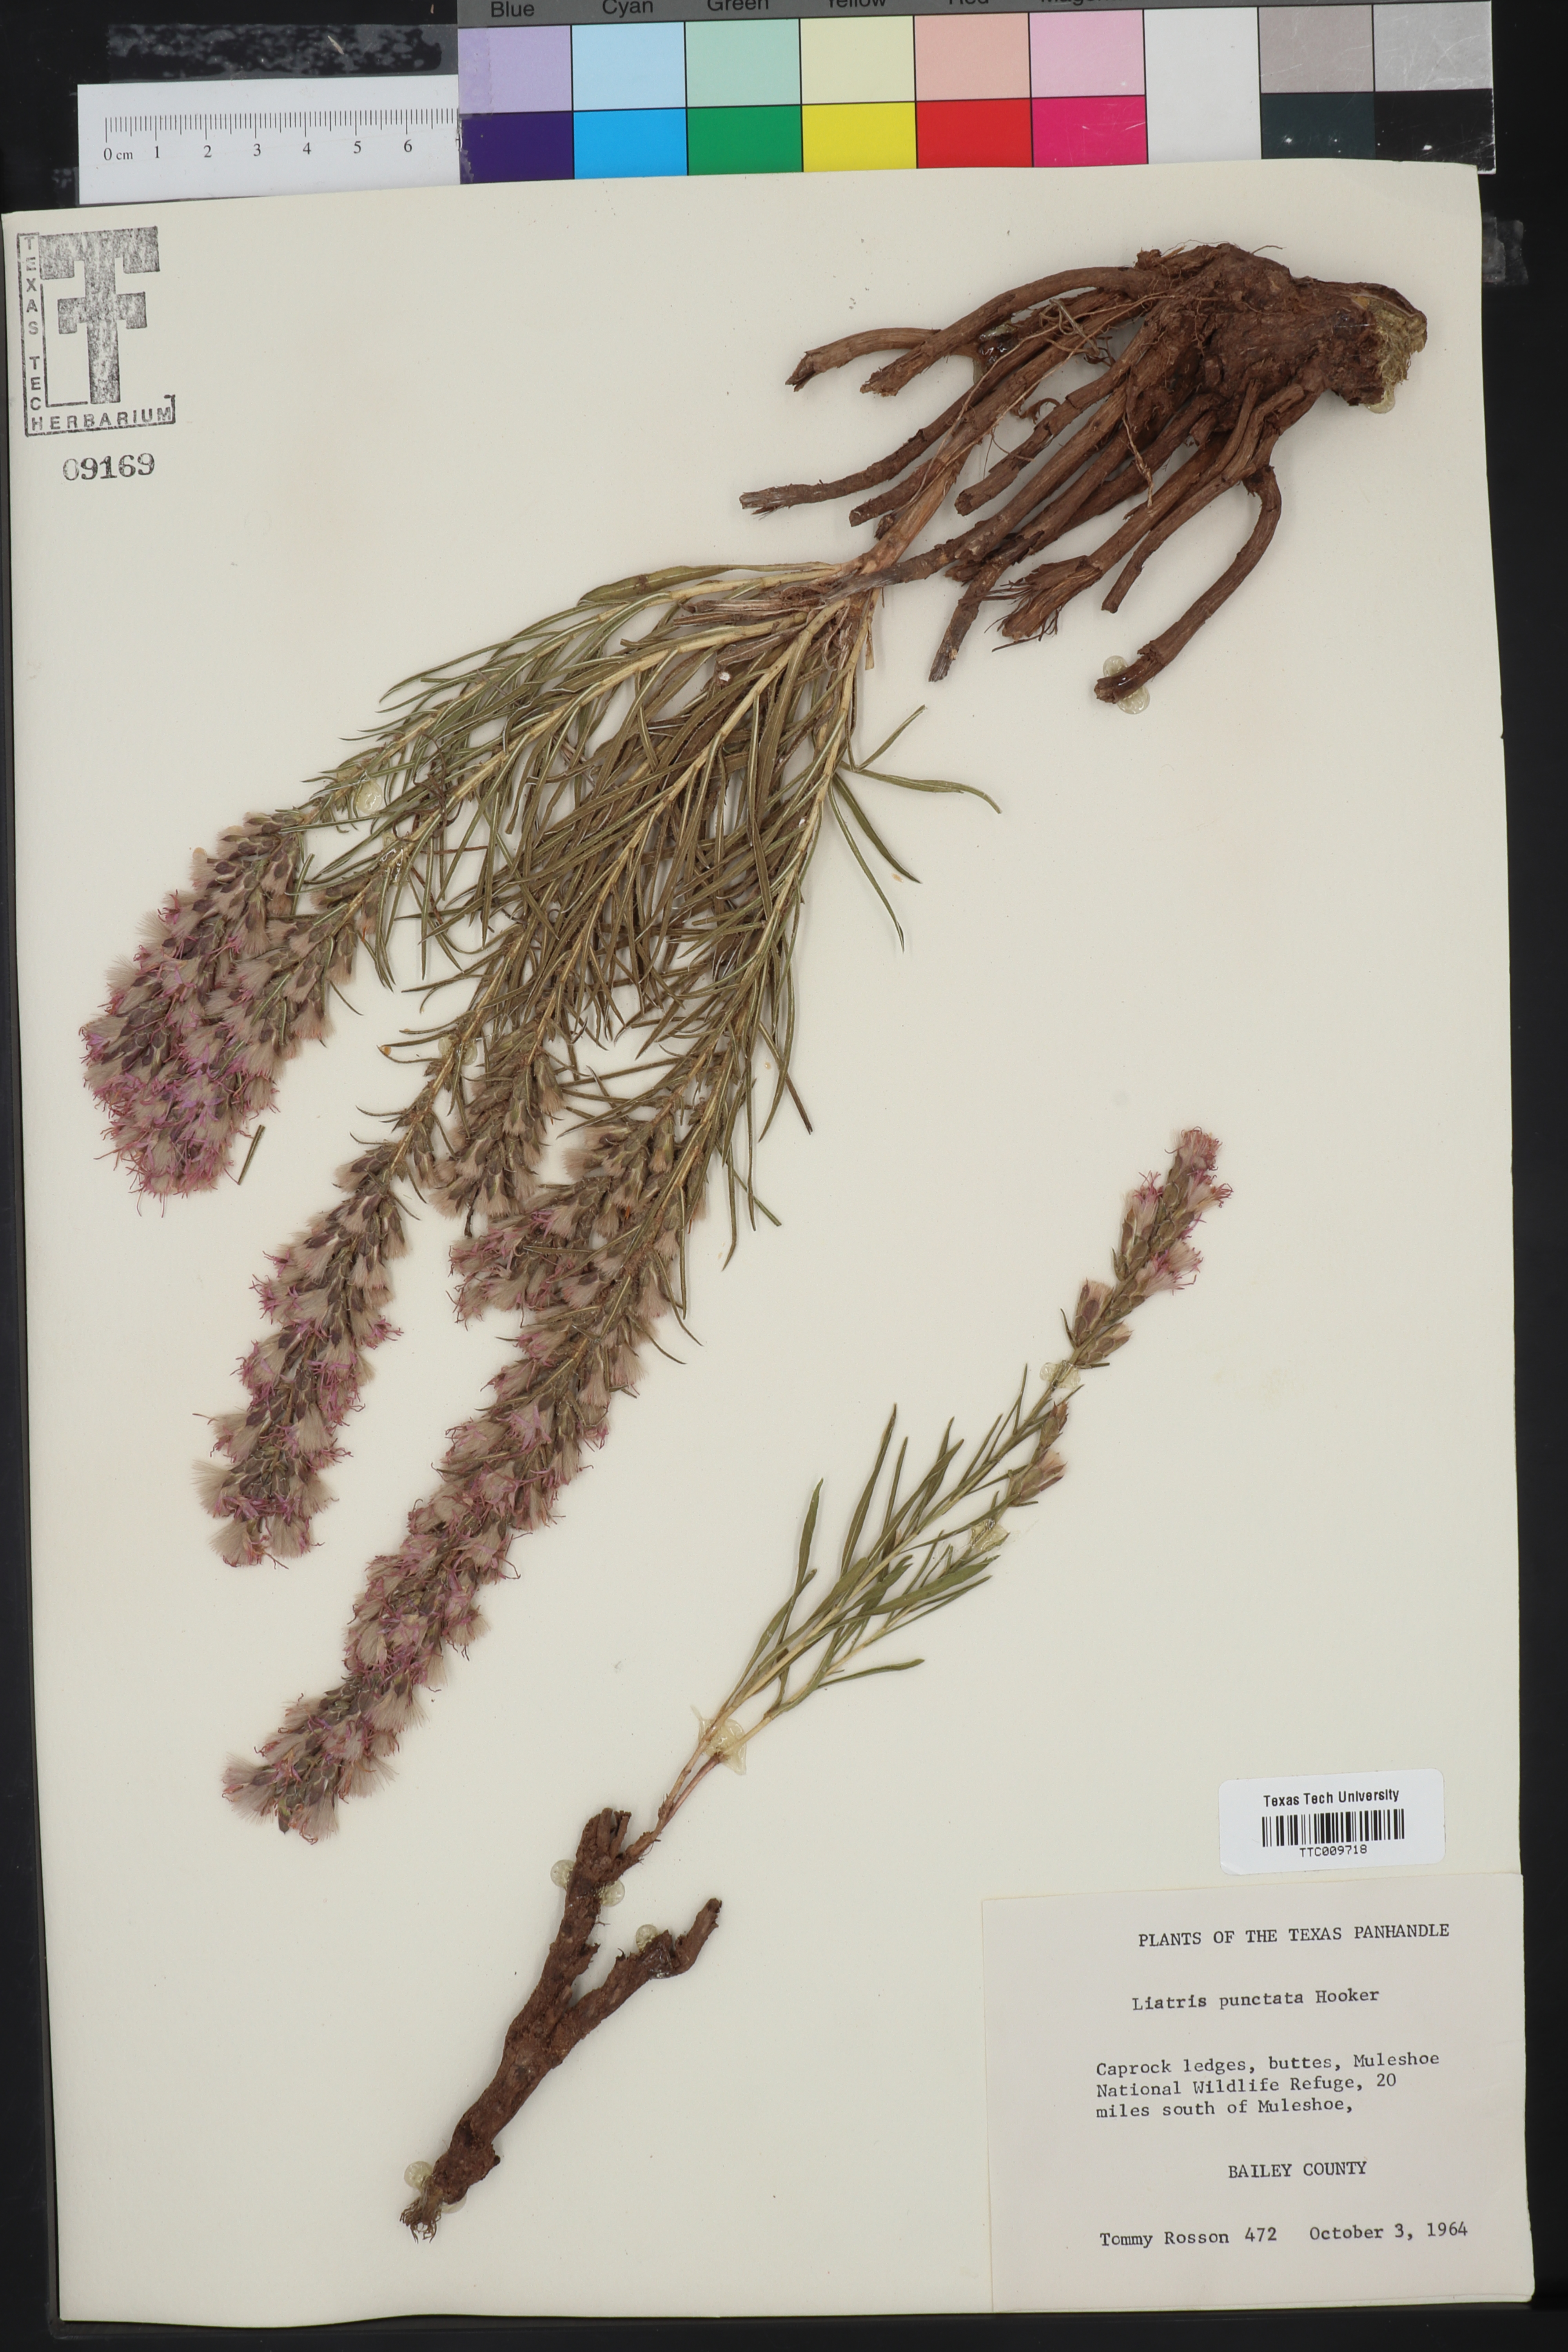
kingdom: Plantae
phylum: Tracheophyta
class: Magnoliopsida
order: Asterales
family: Asteraceae
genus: Liatris
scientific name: Liatris punctata
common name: Dotted gayfeather
